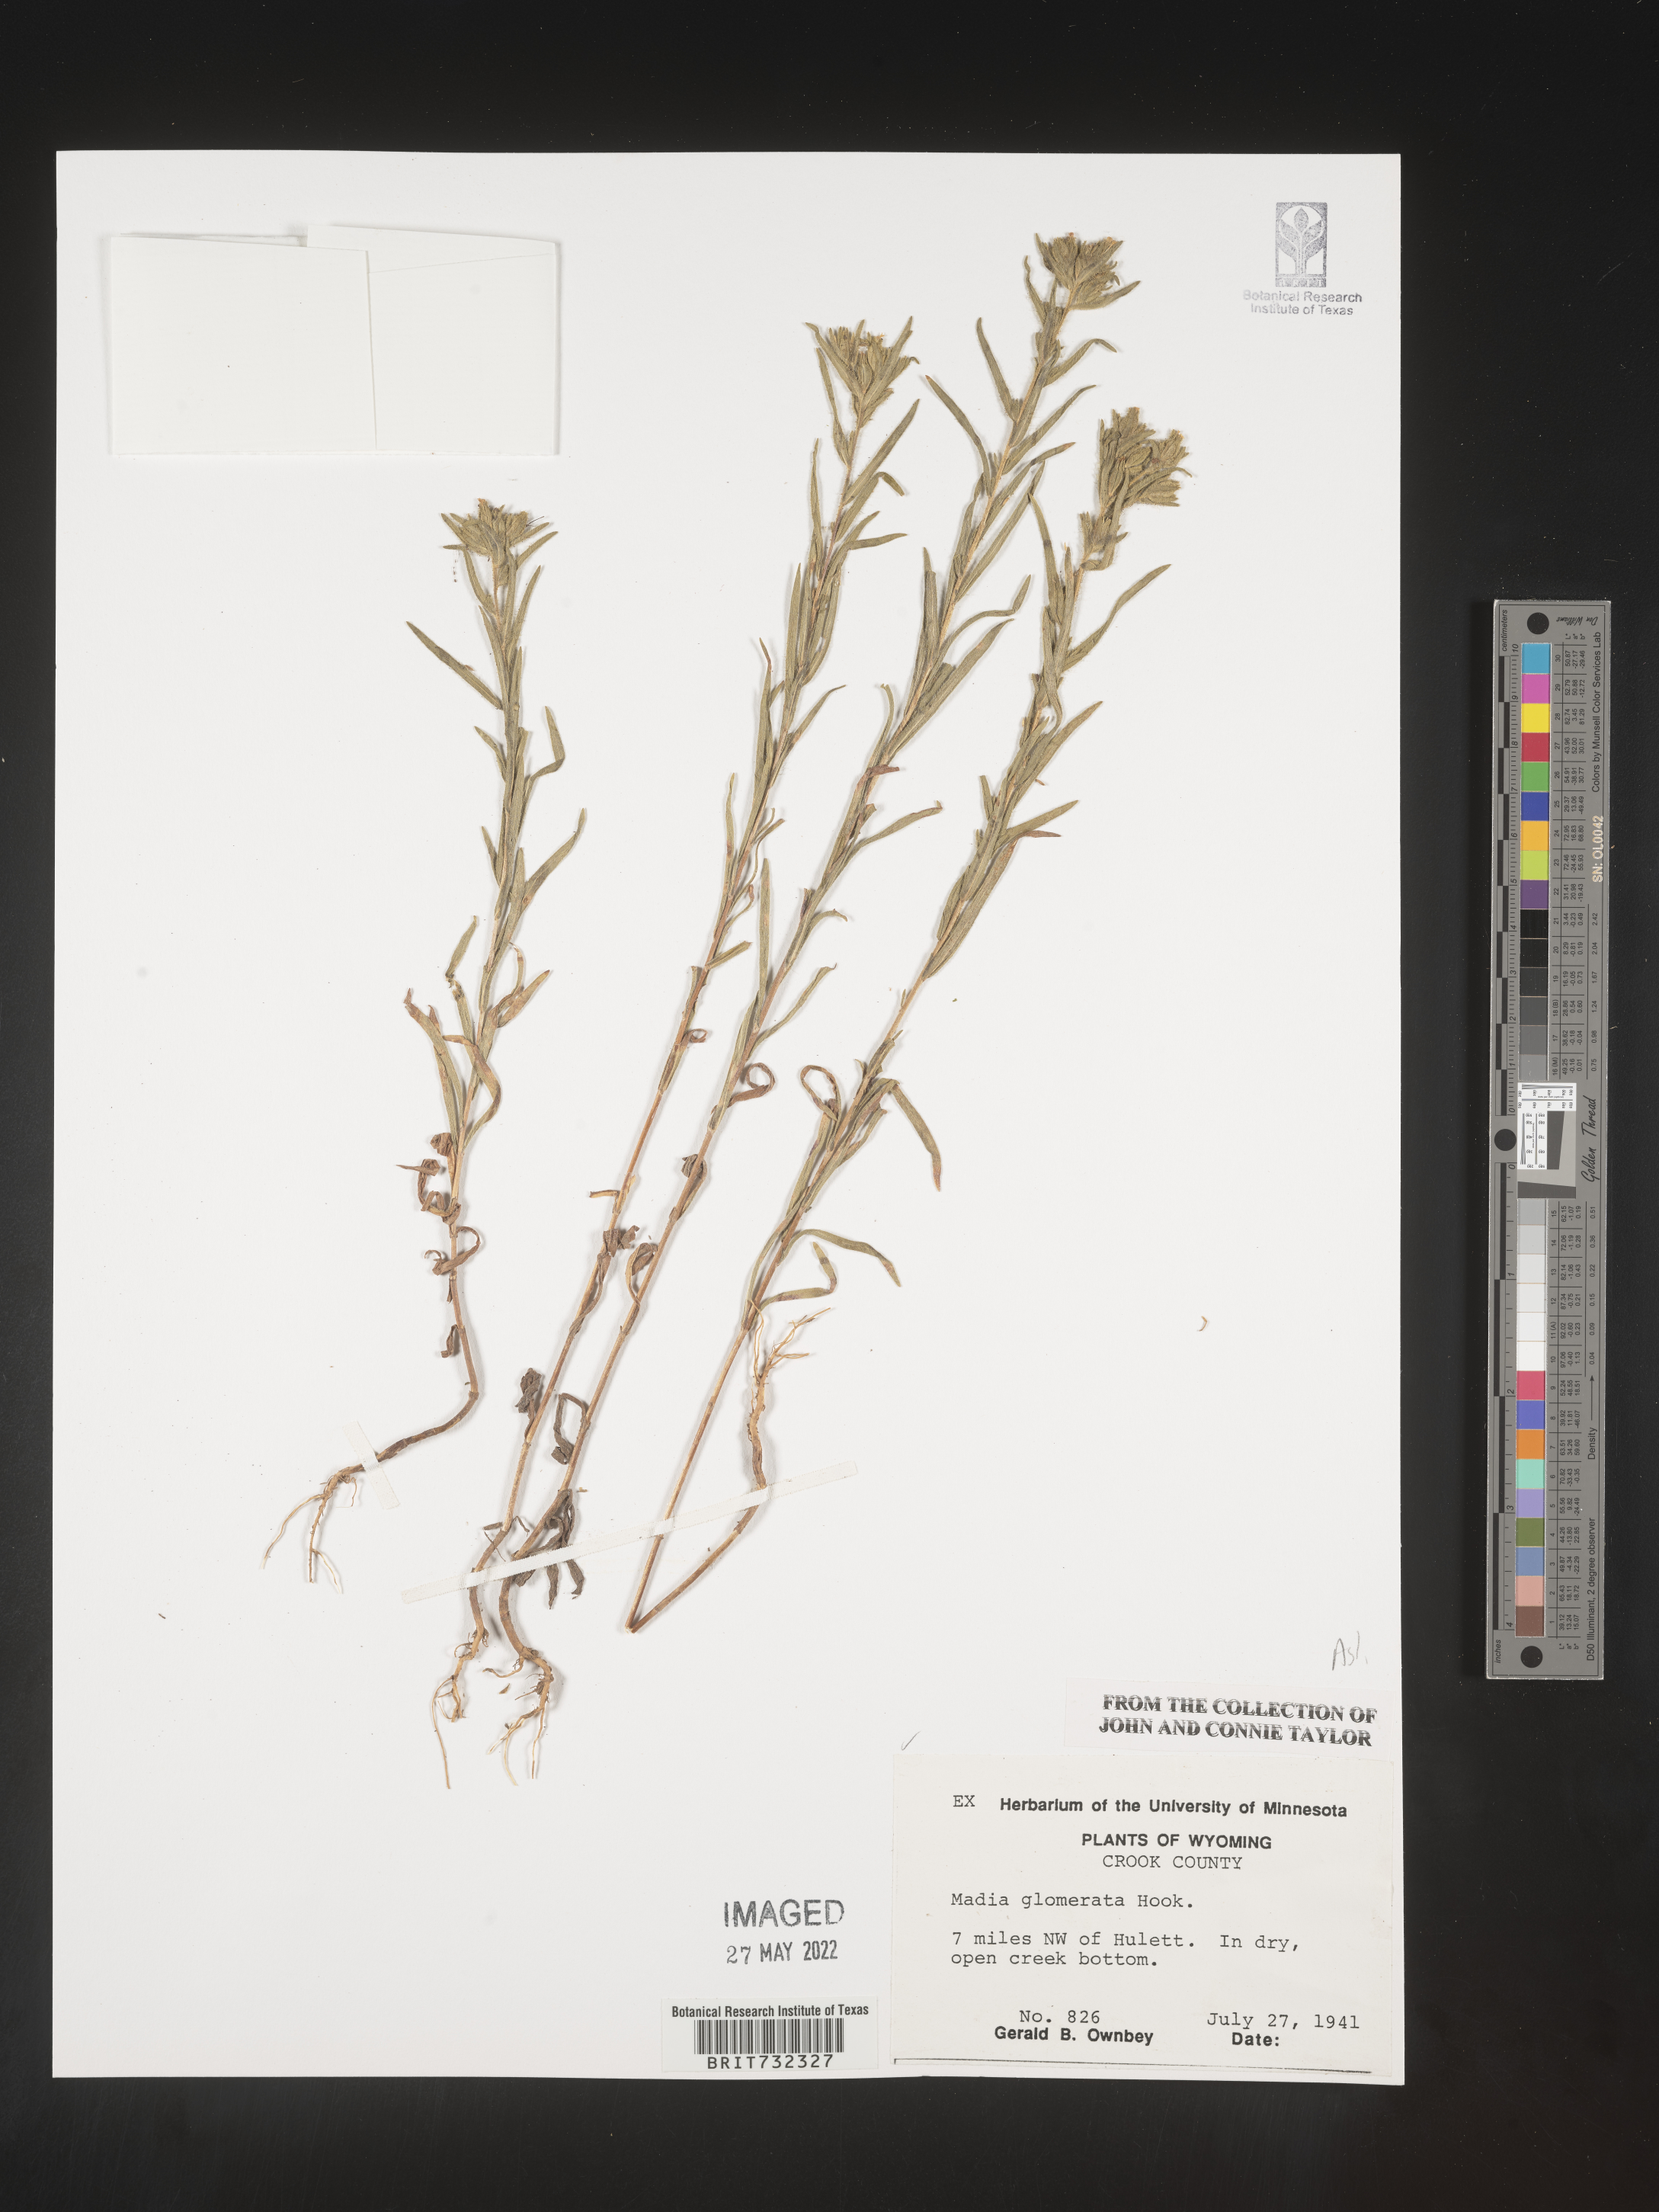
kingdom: Plantae
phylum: Tracheophyta
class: Magnoliopsida
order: Asterales
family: Asteraceae
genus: Madia
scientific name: Madia glomerata
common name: Mountain tarweed
